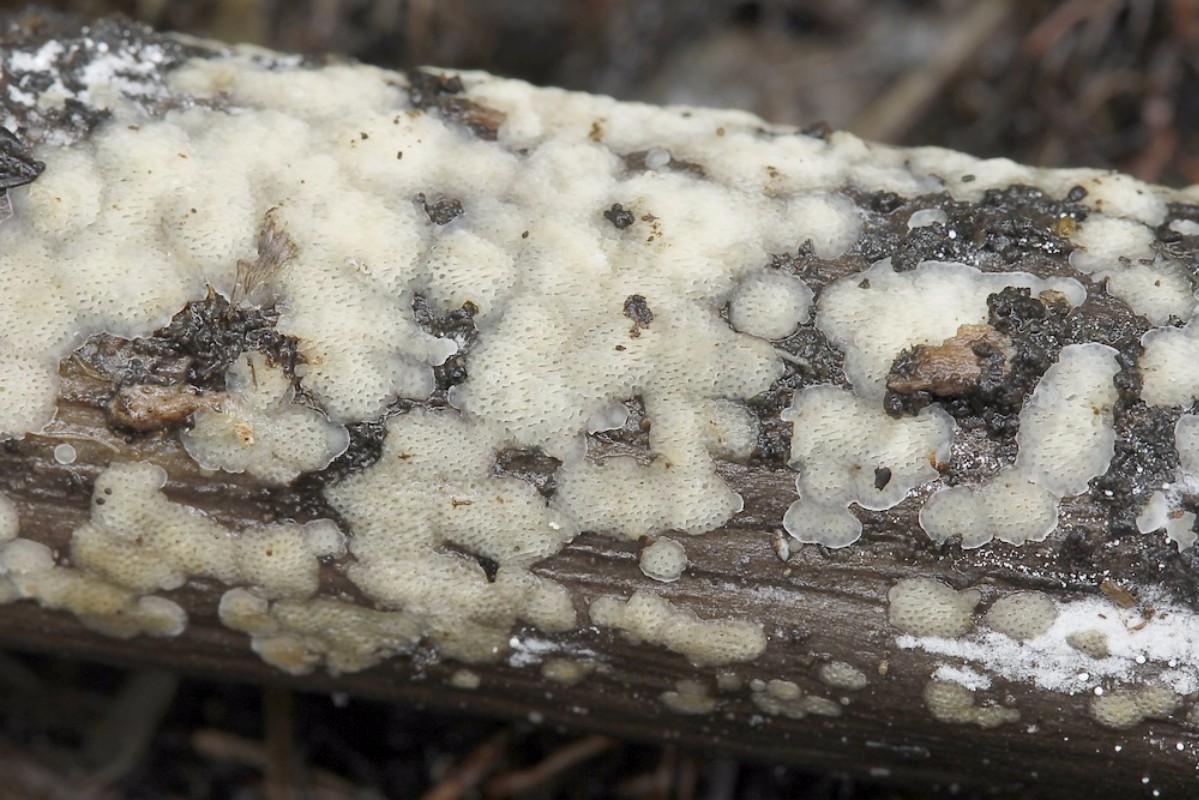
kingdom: Fungi
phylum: Basidiomycota
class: Agaricomycetes
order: Polyporales
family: Meripilaceae
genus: Rigidoporus
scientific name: Rigidoporus sanguinolentus
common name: blod-skorpeporesvamp
